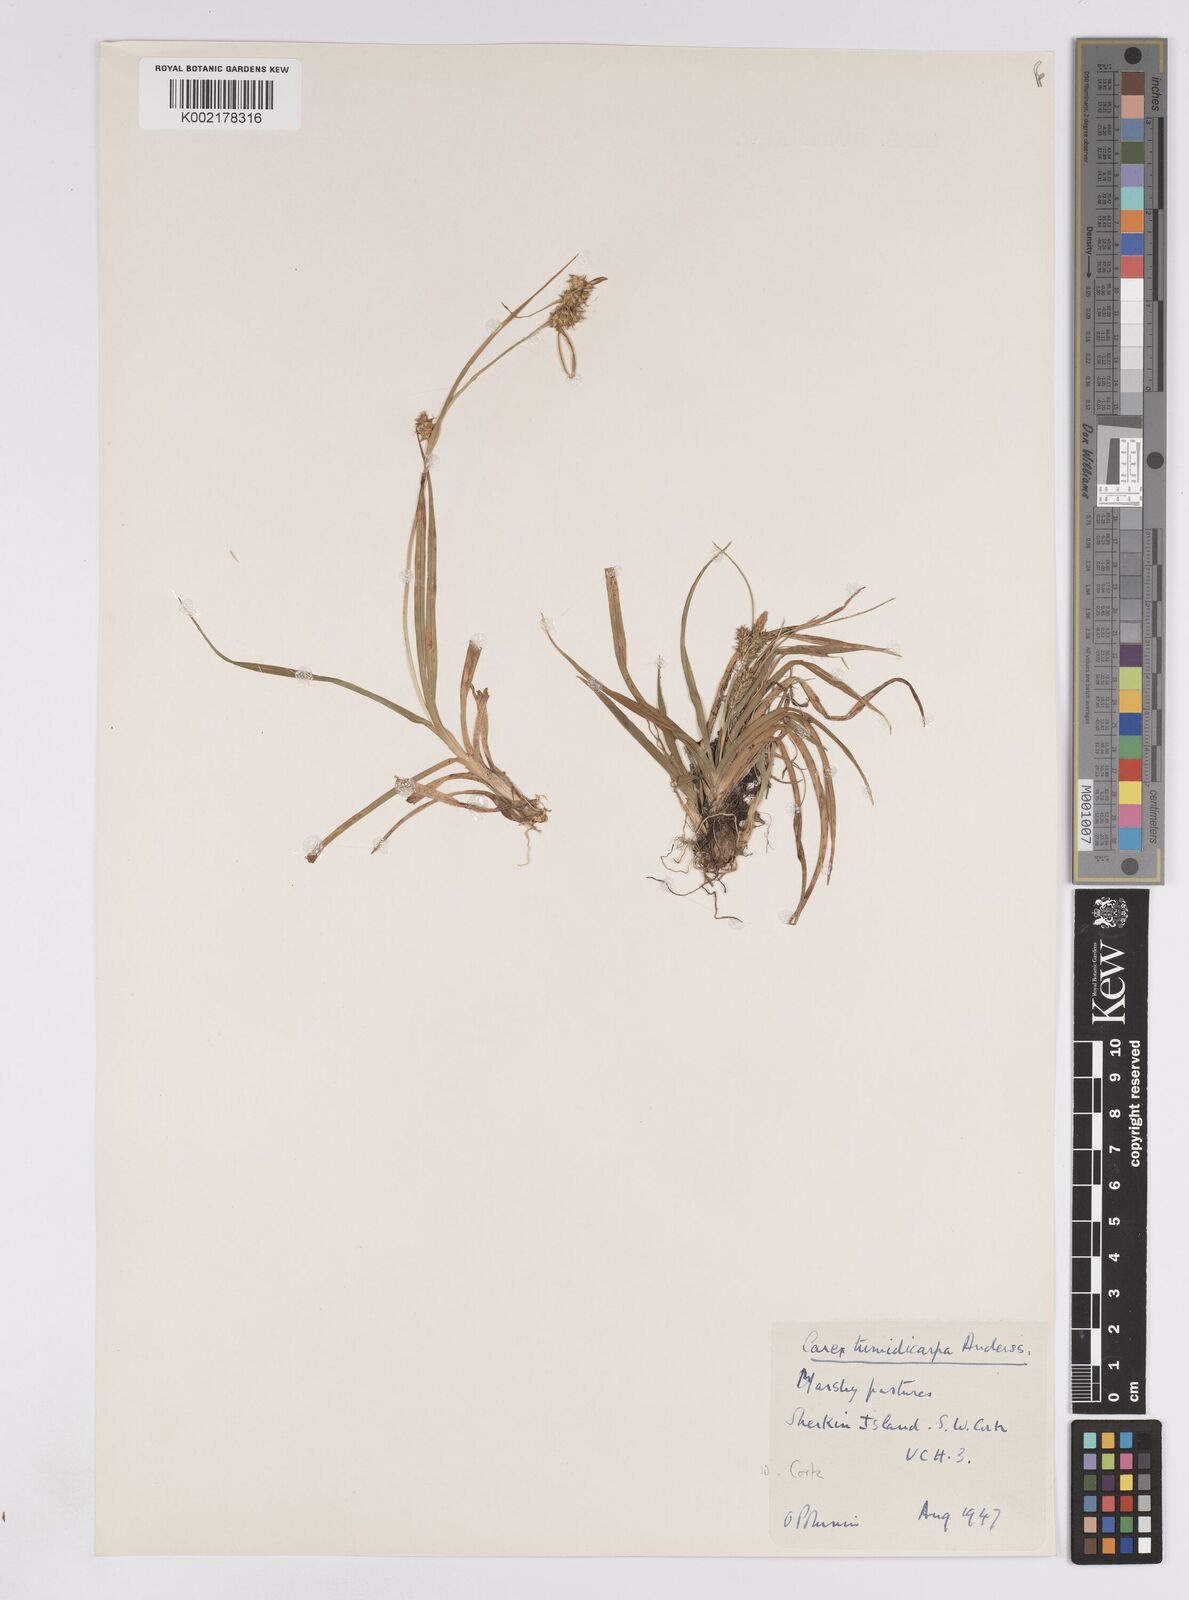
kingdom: Plantae
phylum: Tracheophyta
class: Liliopsida
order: Poales
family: Cyperaceae
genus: Carex
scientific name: Carex demissa
